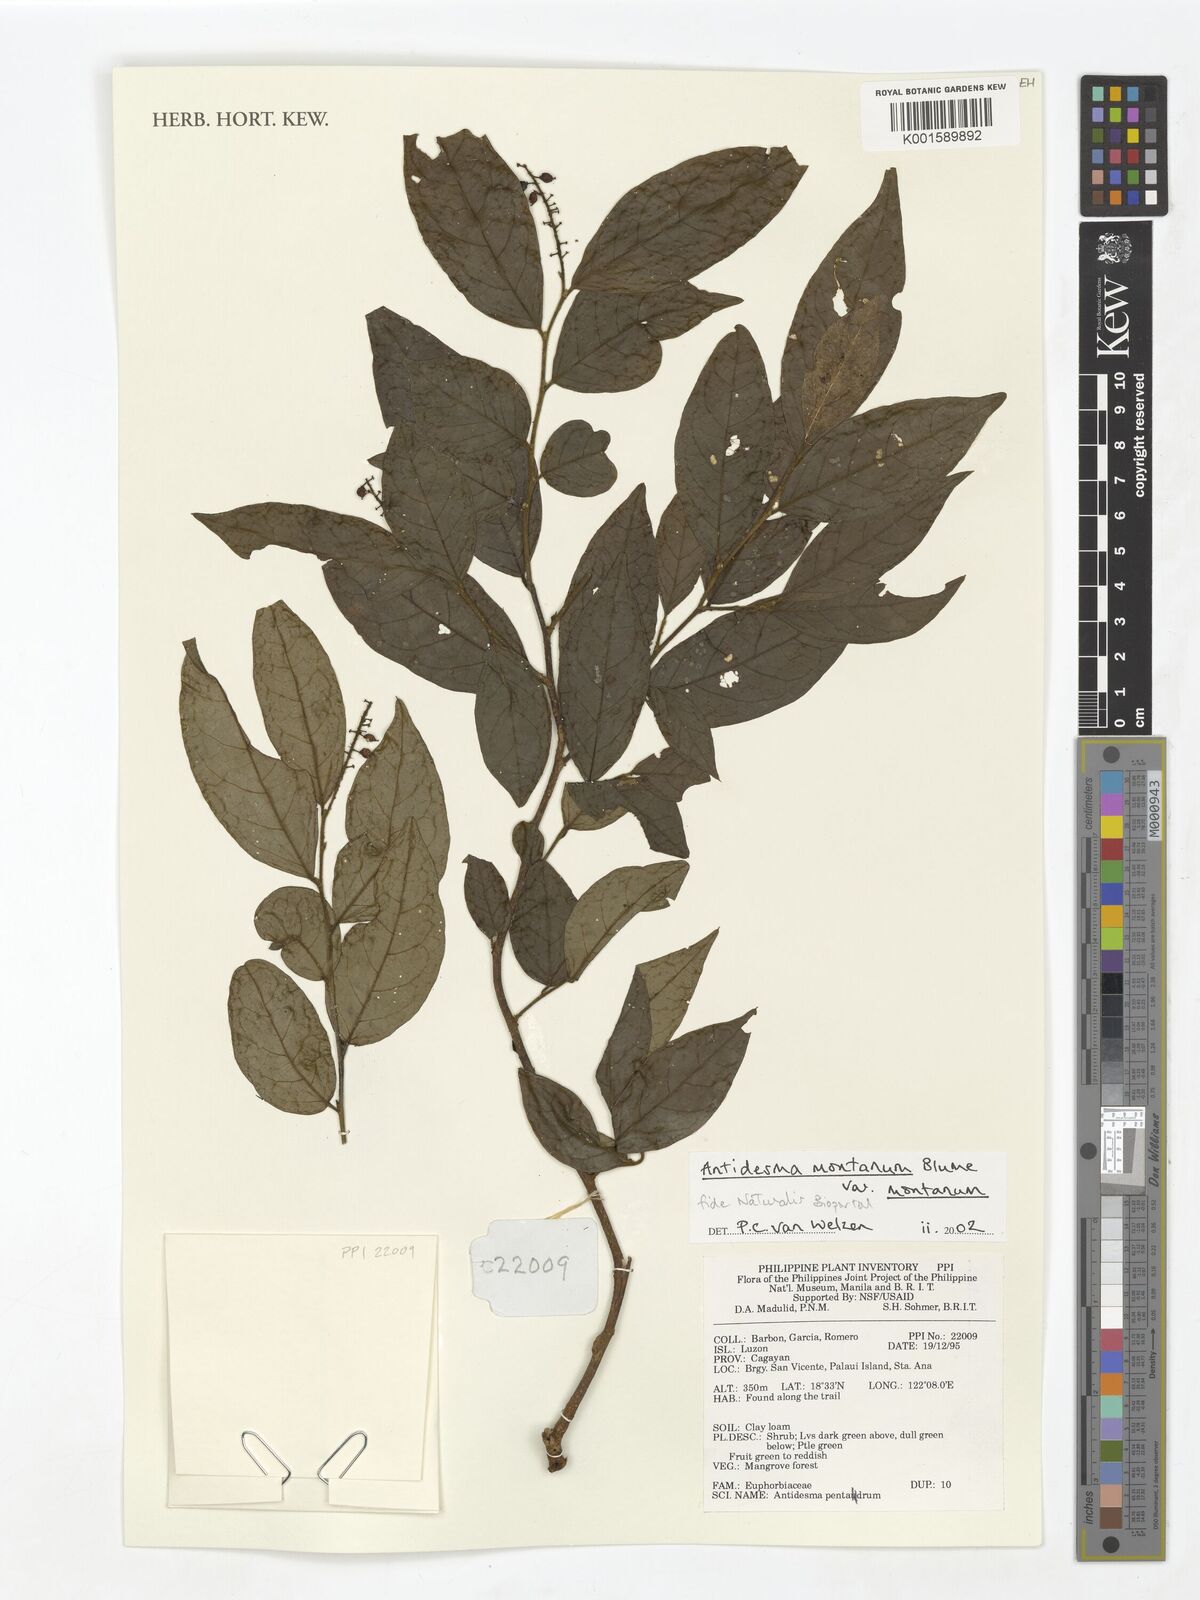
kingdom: Plantae
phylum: Tracheophyta
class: Magnoliopsida
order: Malpighiales
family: Phyllanthaceae
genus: Antidesma
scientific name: Antidesma montanum
